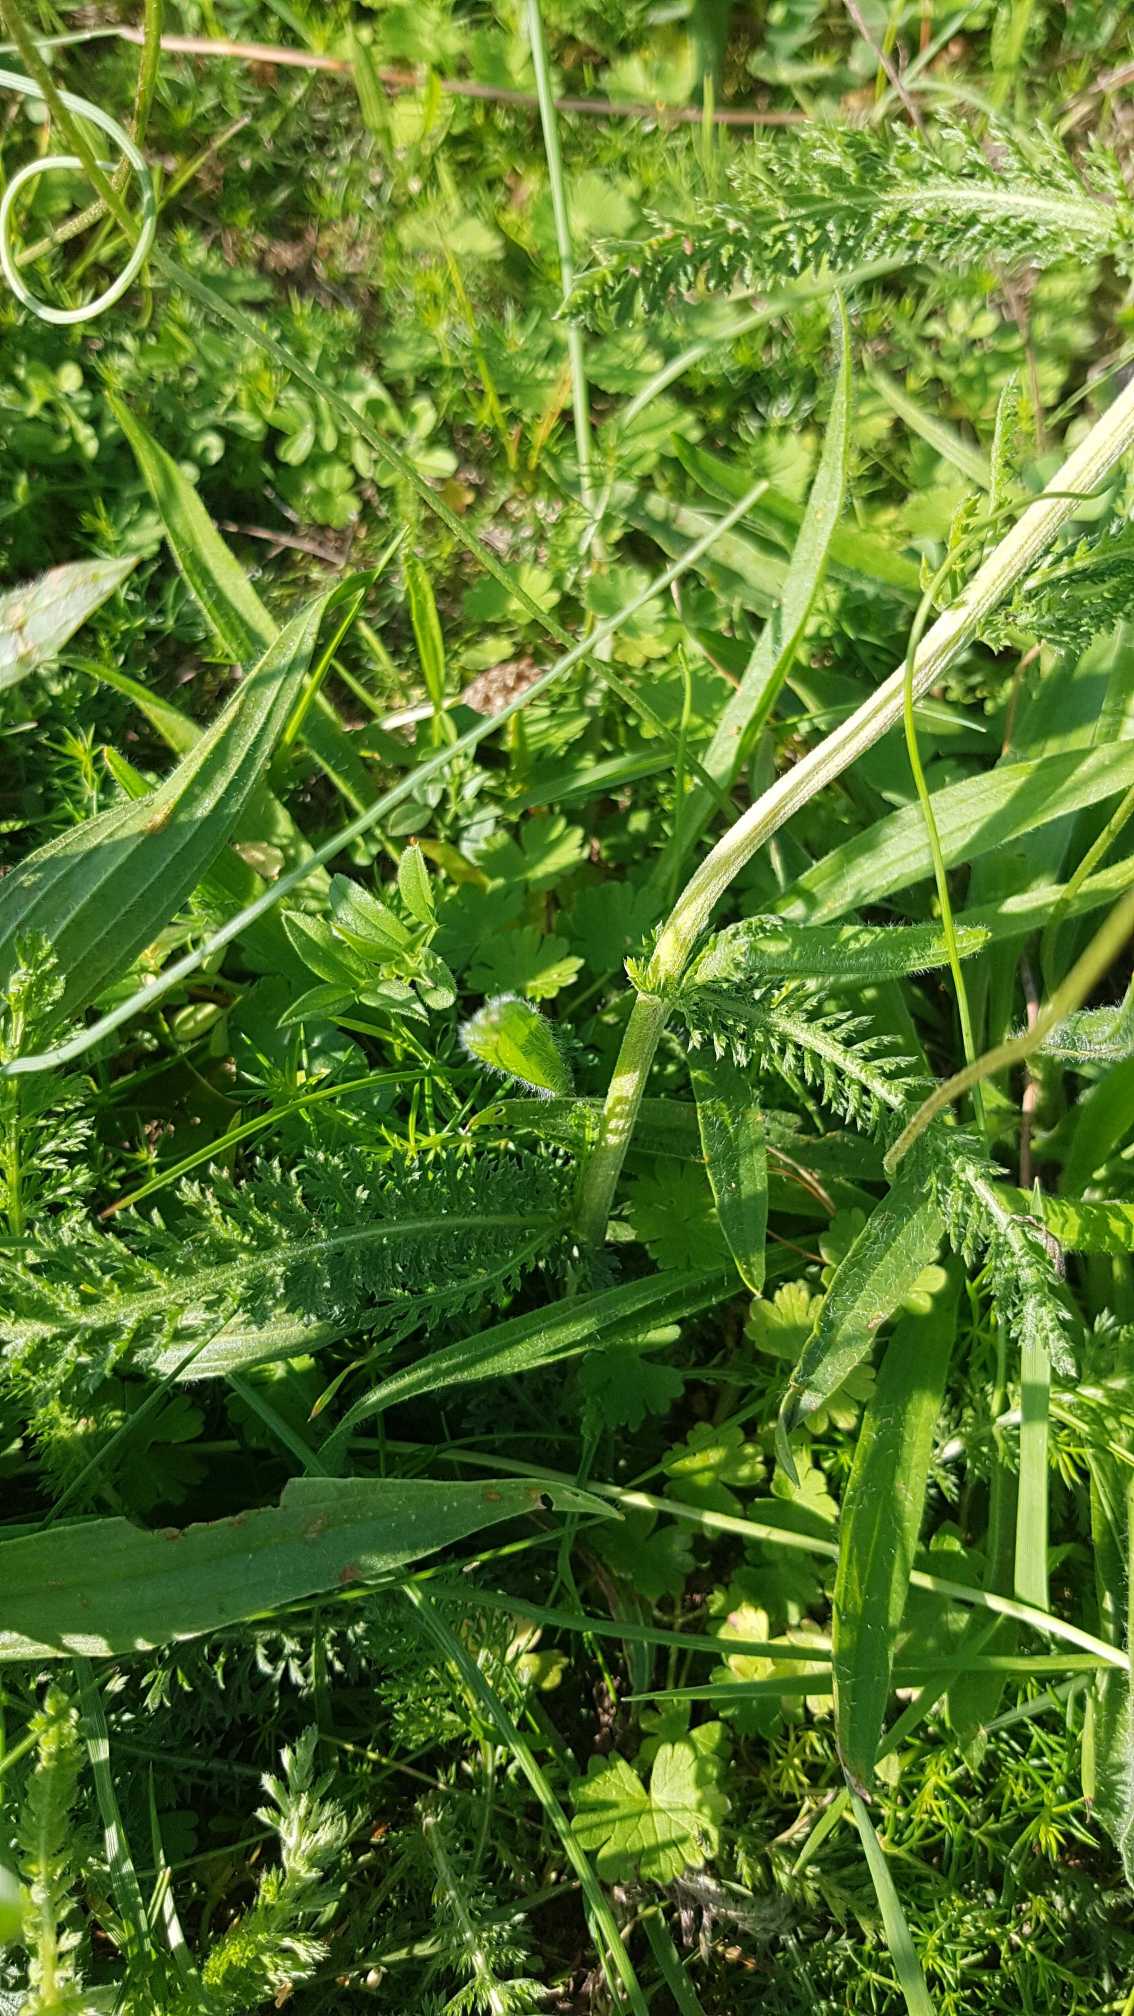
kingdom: Plantae
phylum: Tracheophyta
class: Magnoliopsida
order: Asterales
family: Asteraceae
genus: Achillea
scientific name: Achillea millefolium
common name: Almindelig røllike
